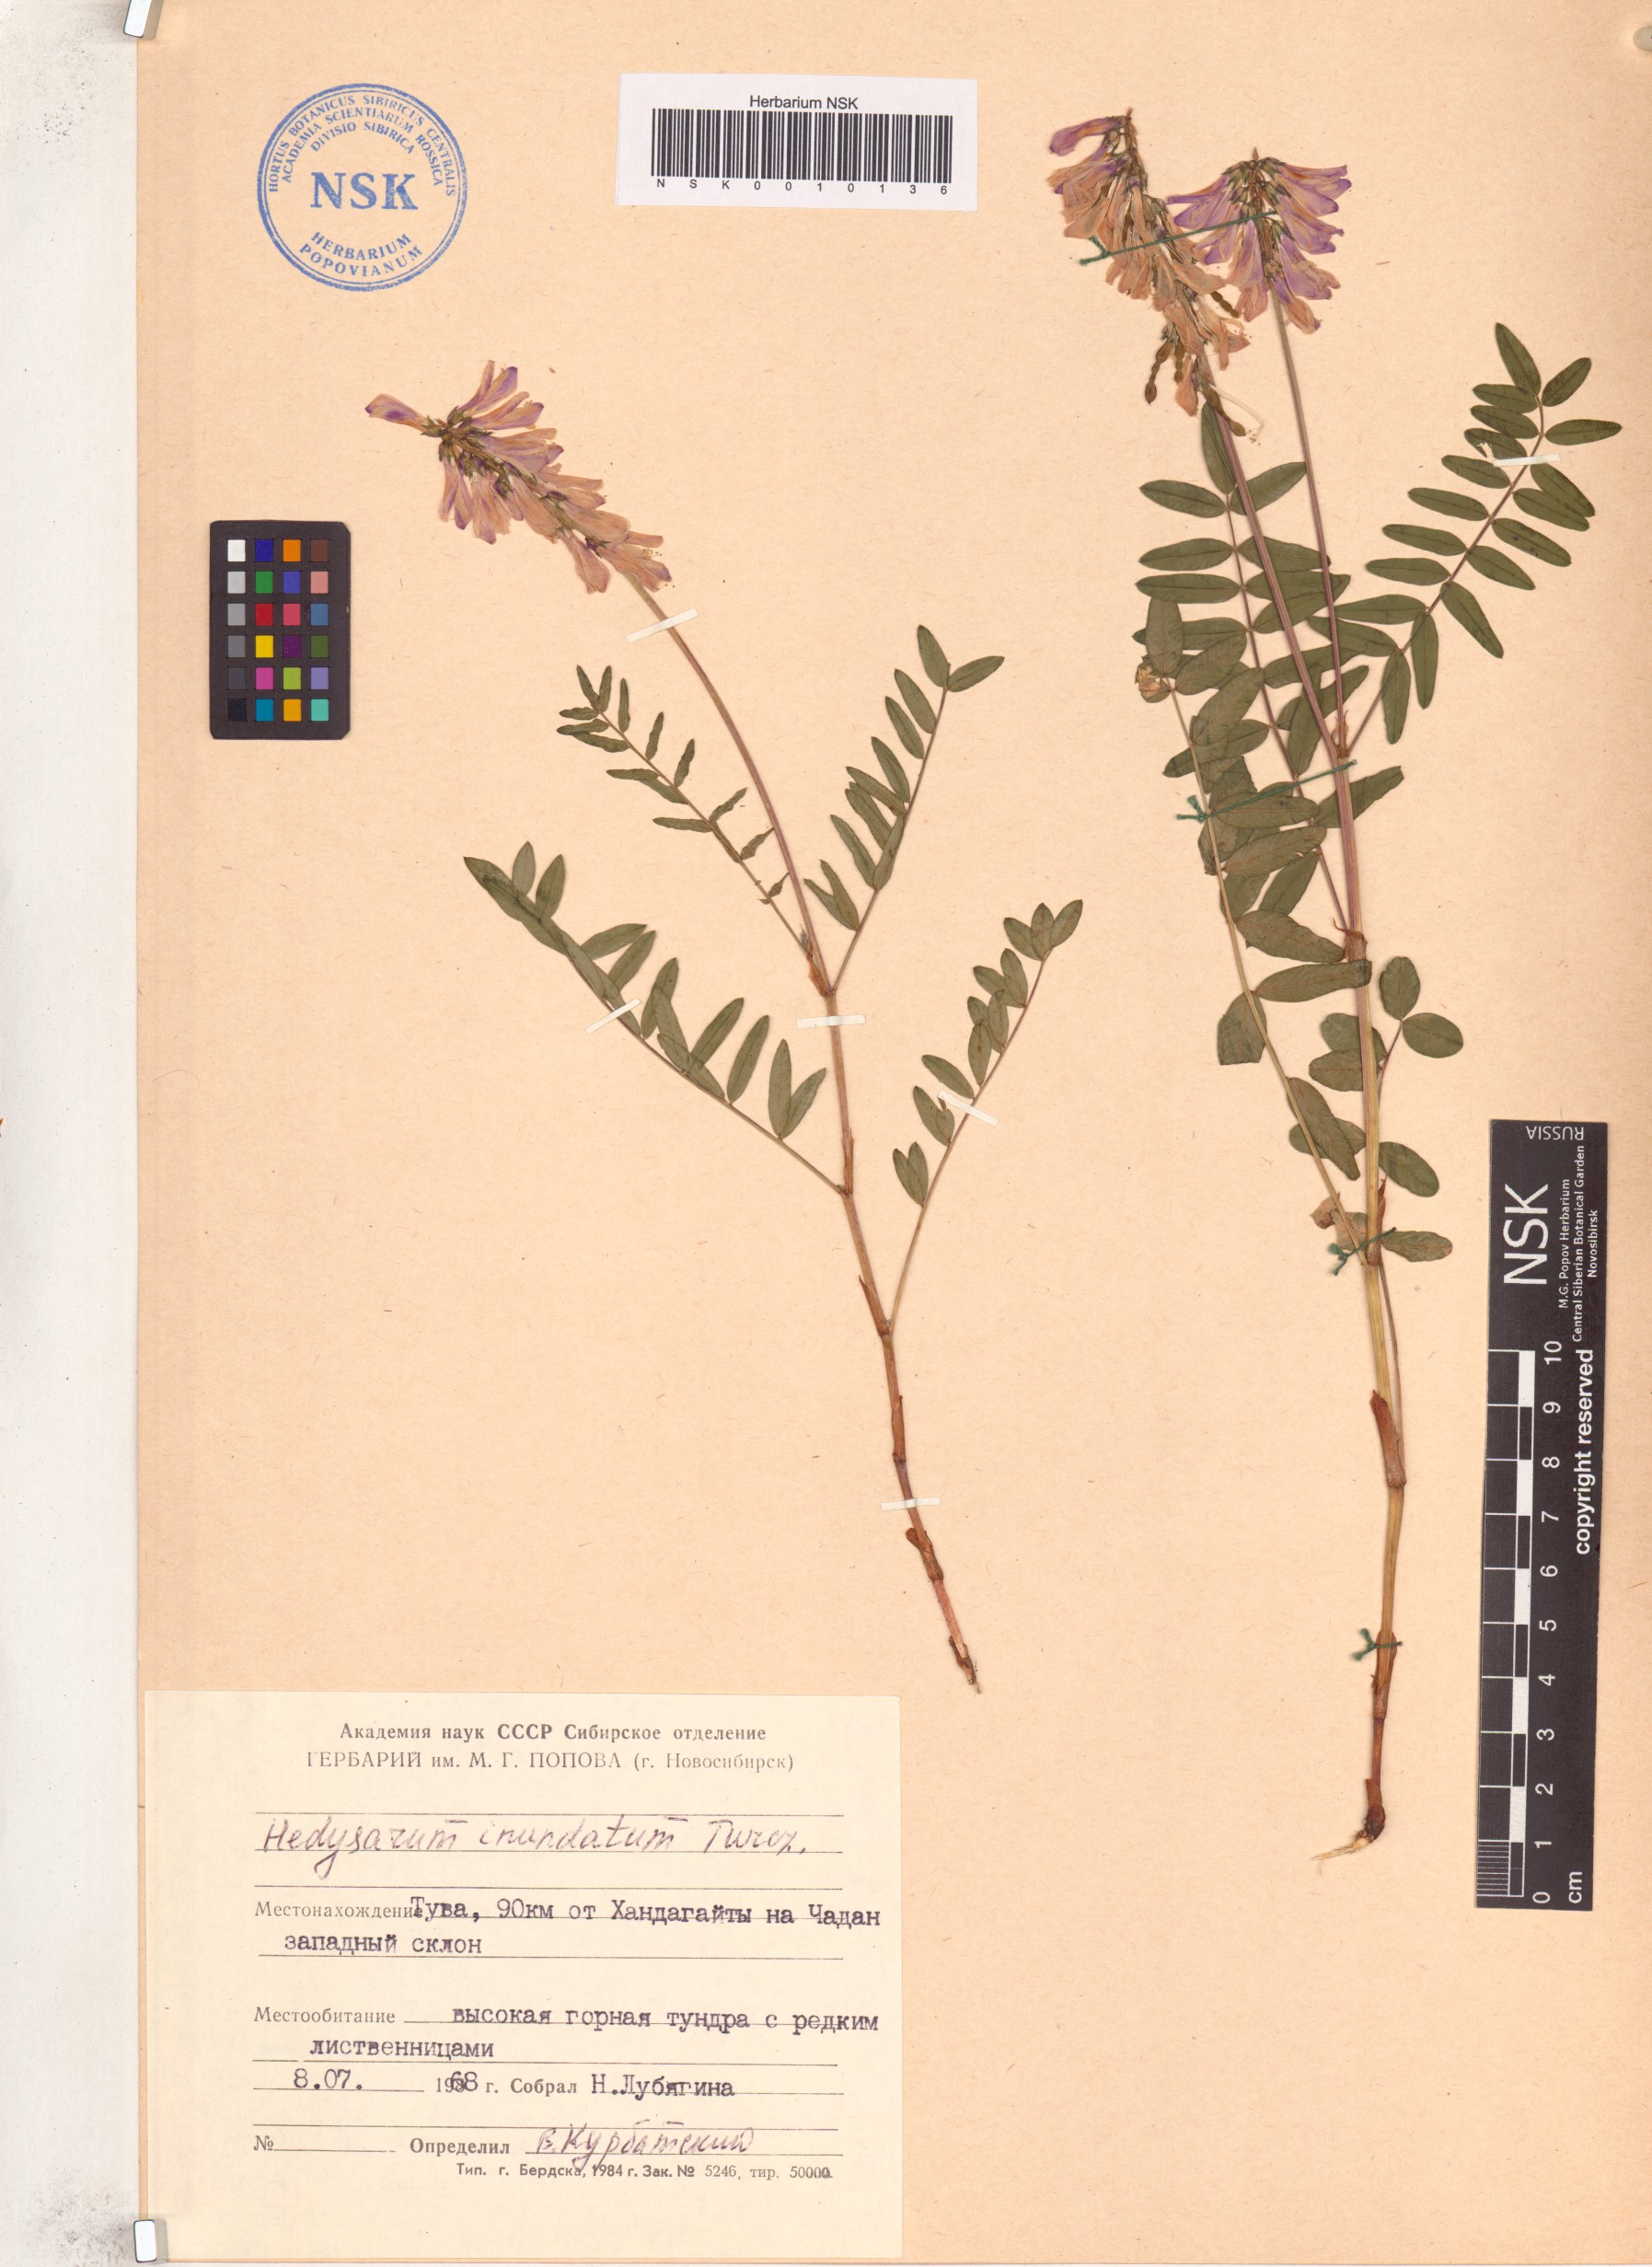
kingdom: Plantae
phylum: Tracheophyta
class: Magnoliopsida
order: Fabales
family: Fabaceae
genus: Hedysarum
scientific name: Hedysarum inundatum
